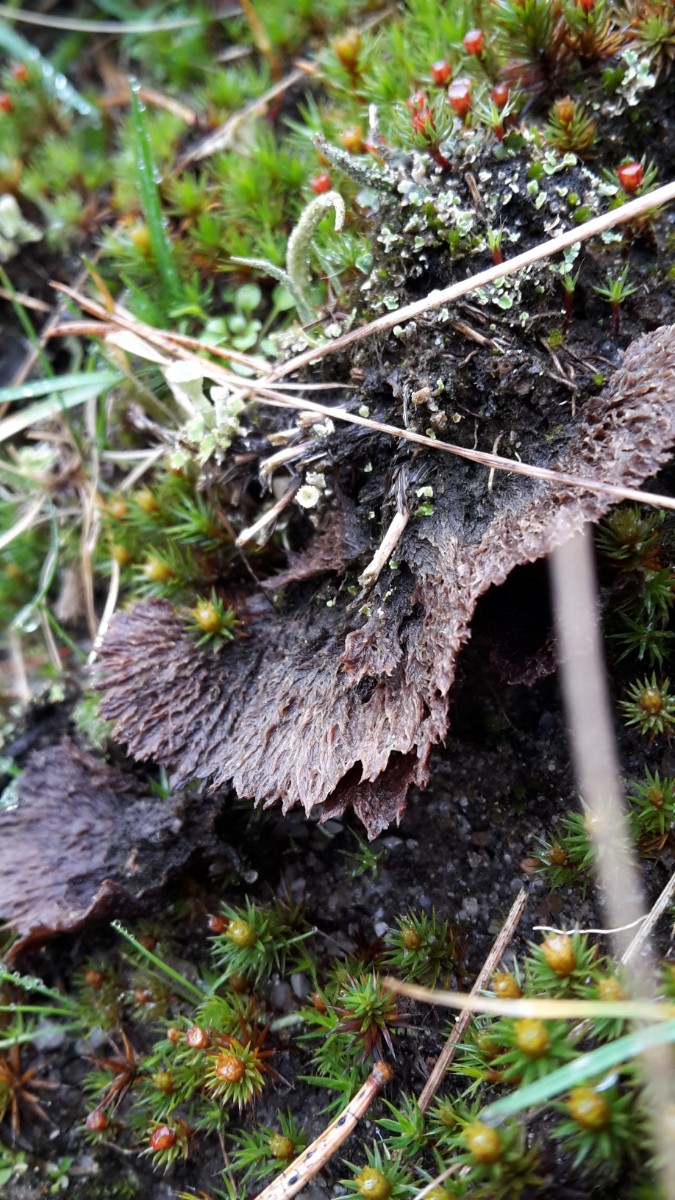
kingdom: Fungi
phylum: Basidiomycota
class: Agaricomycetes
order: Thelephorales
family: Thelephoraceae
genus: Thelephora
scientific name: Thelephora terrestris
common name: fliget frynsesvamp
